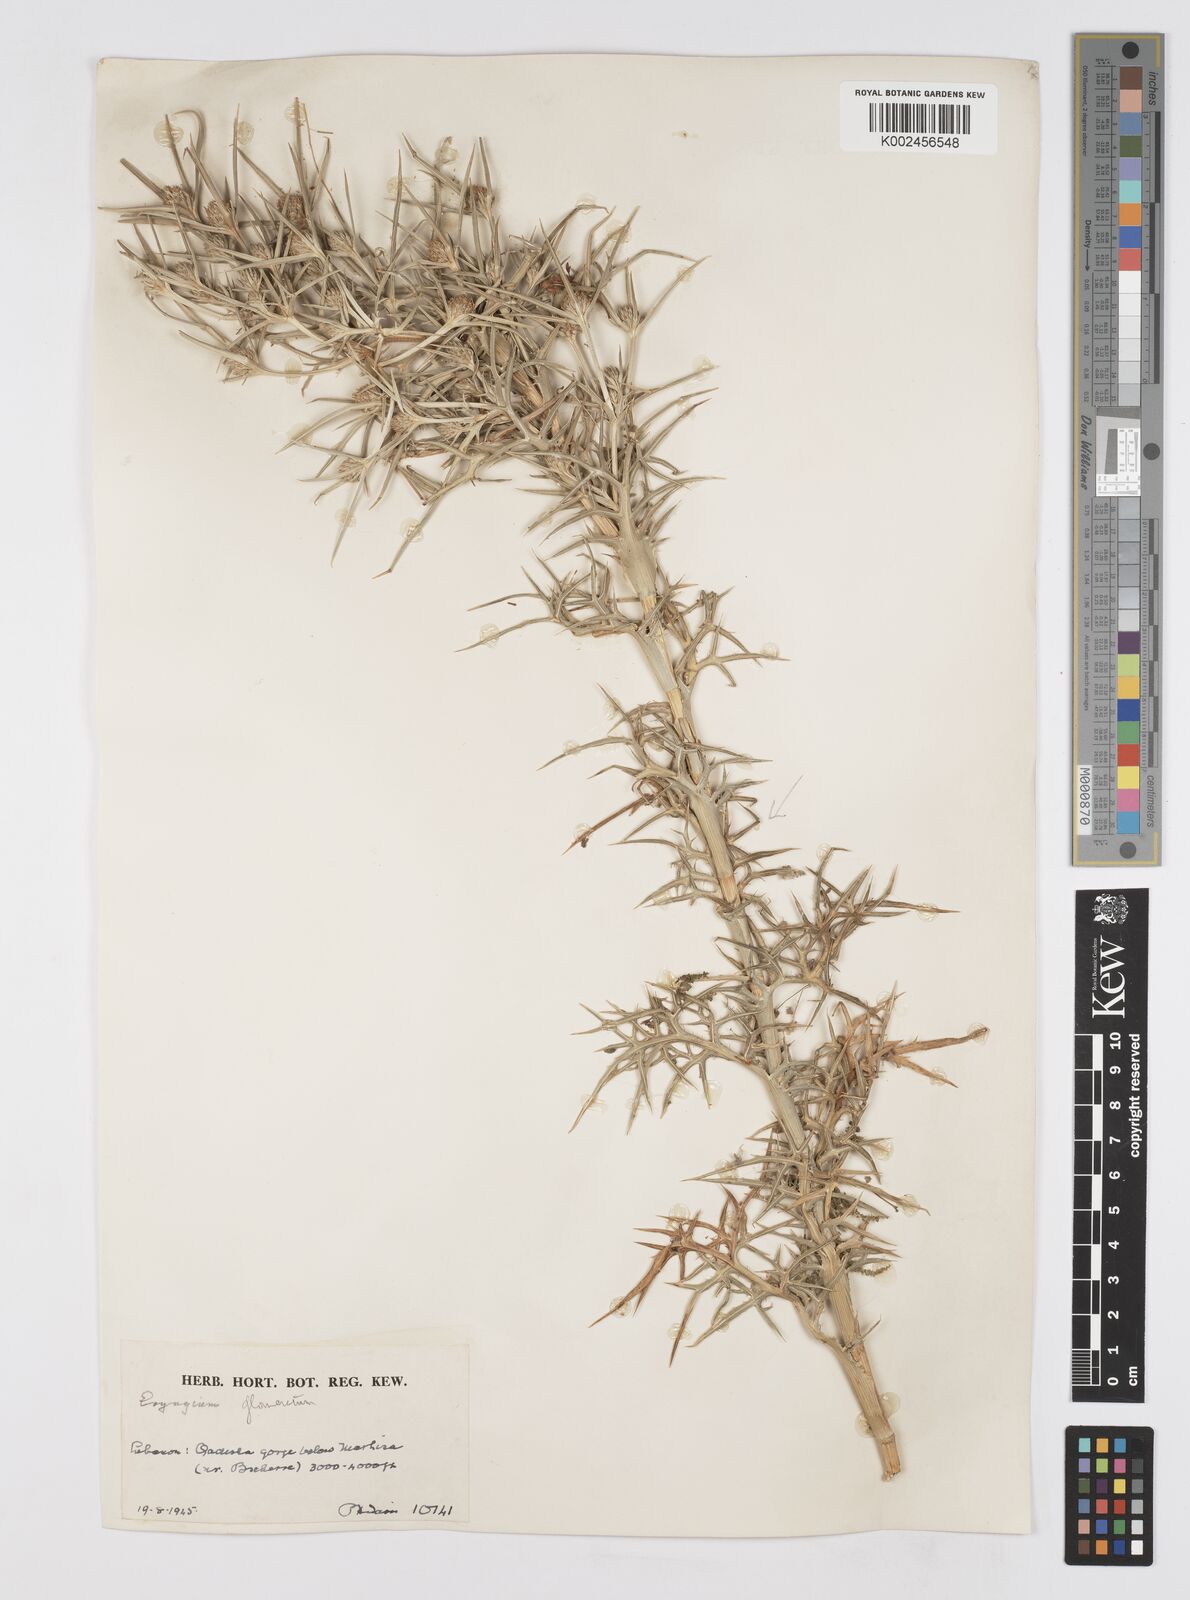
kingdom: Plantae
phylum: Tracheophyta
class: Magnoliopsida
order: Apiales
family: Apiaceae
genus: Eryngium
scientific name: Eryngium glomeratum
